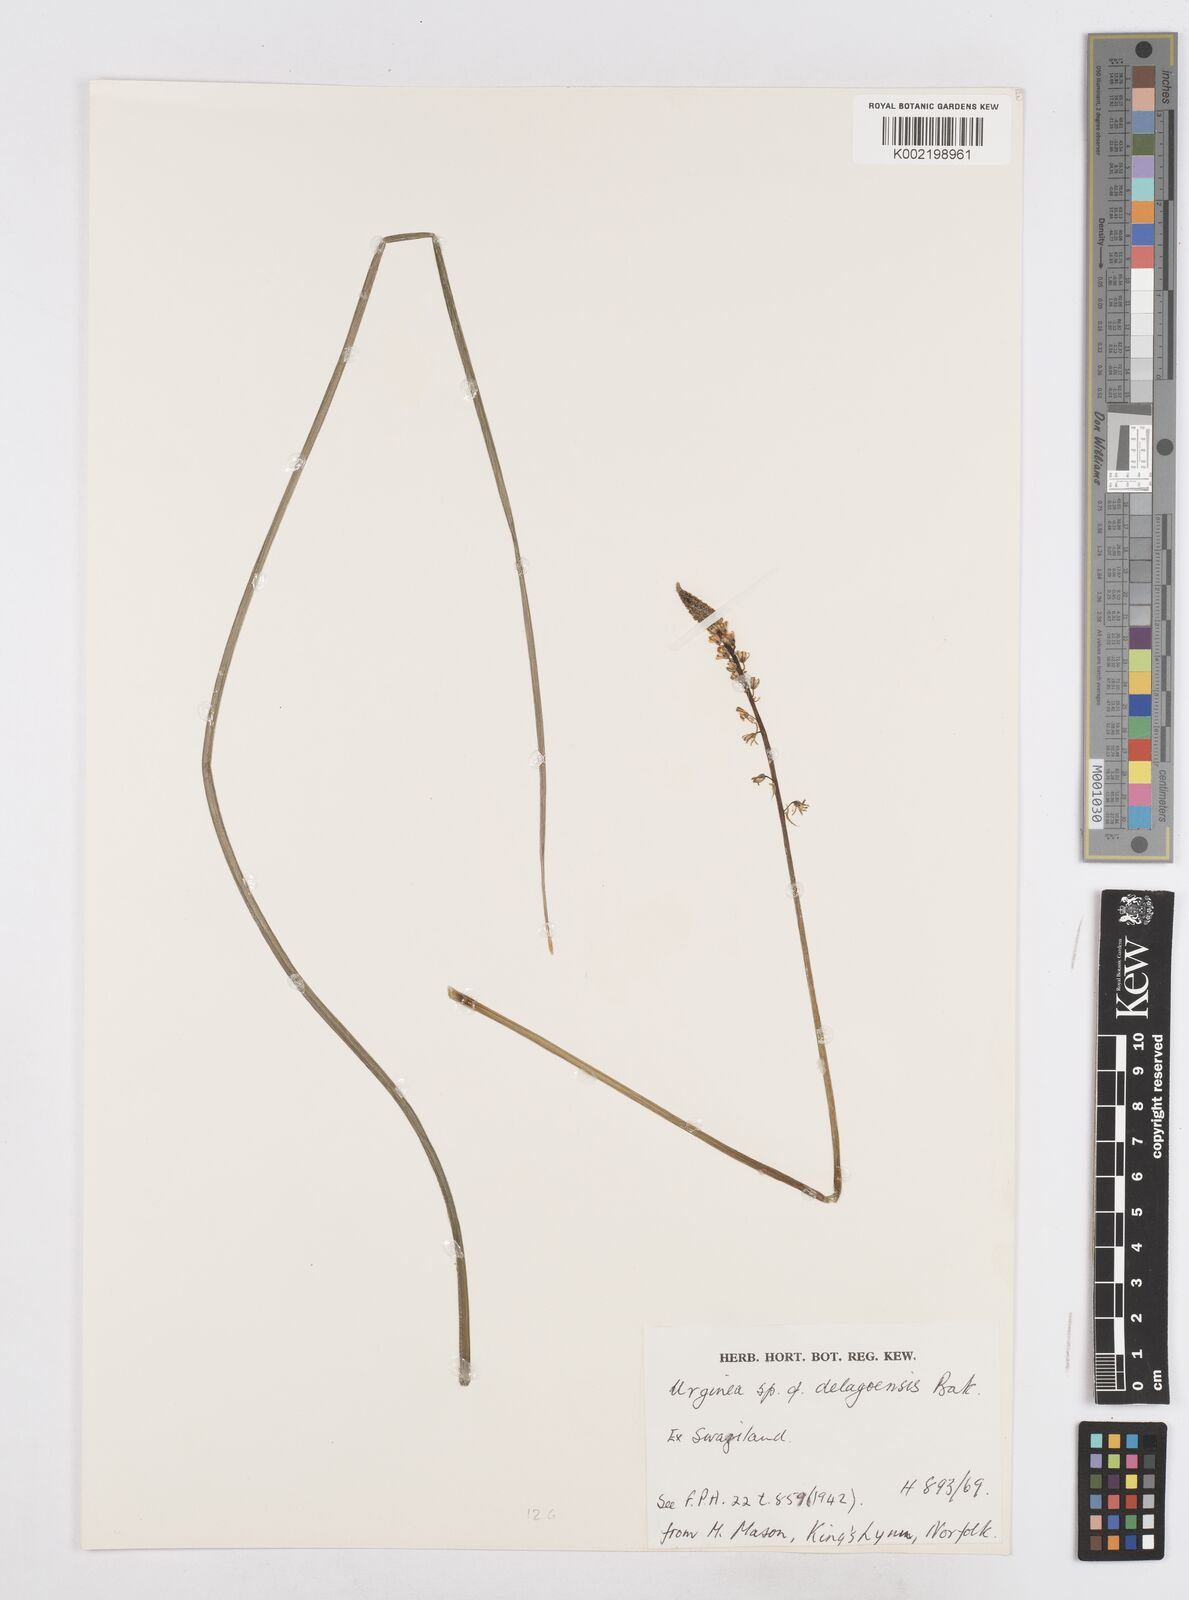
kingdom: Plantae
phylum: Tracheophyta
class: Liliopsida
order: Asparagales
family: Asparagaceae
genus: Drimia
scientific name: Drimia delagoensis
